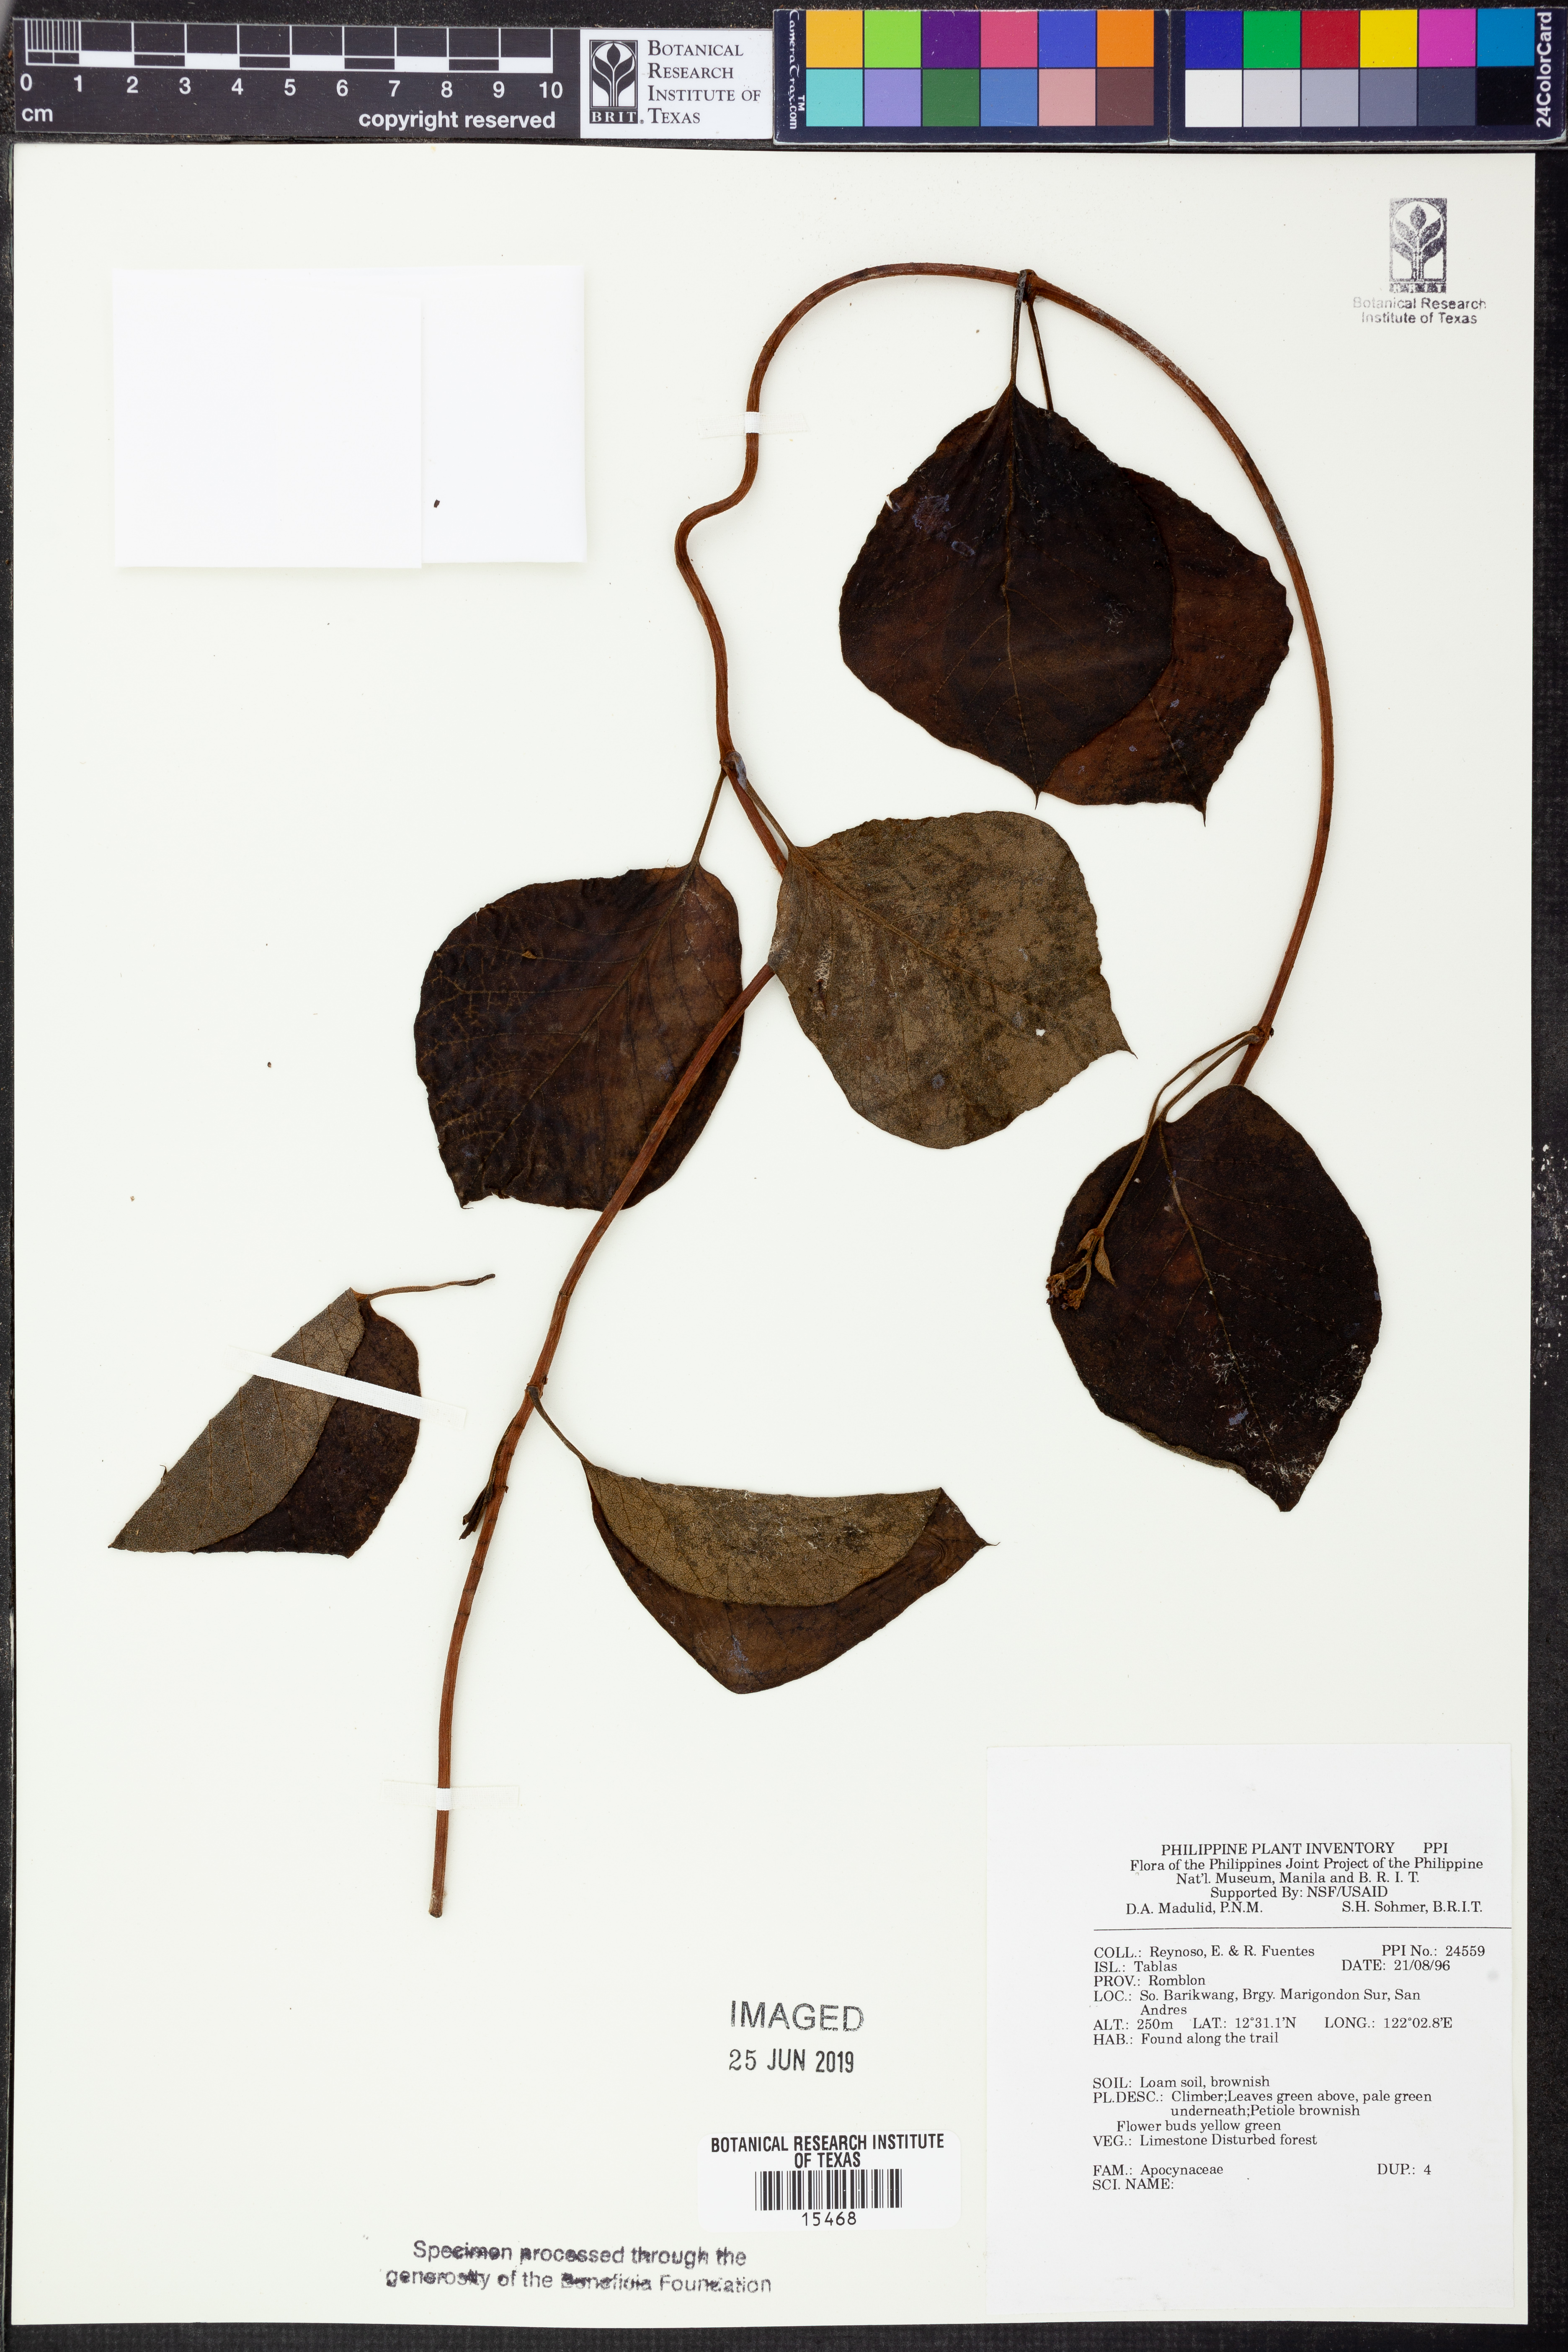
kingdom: Plantae
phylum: Tracheophyta
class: Magnoliopsida
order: Gentianales
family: Apocynaceae
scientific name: Apocynaceae
